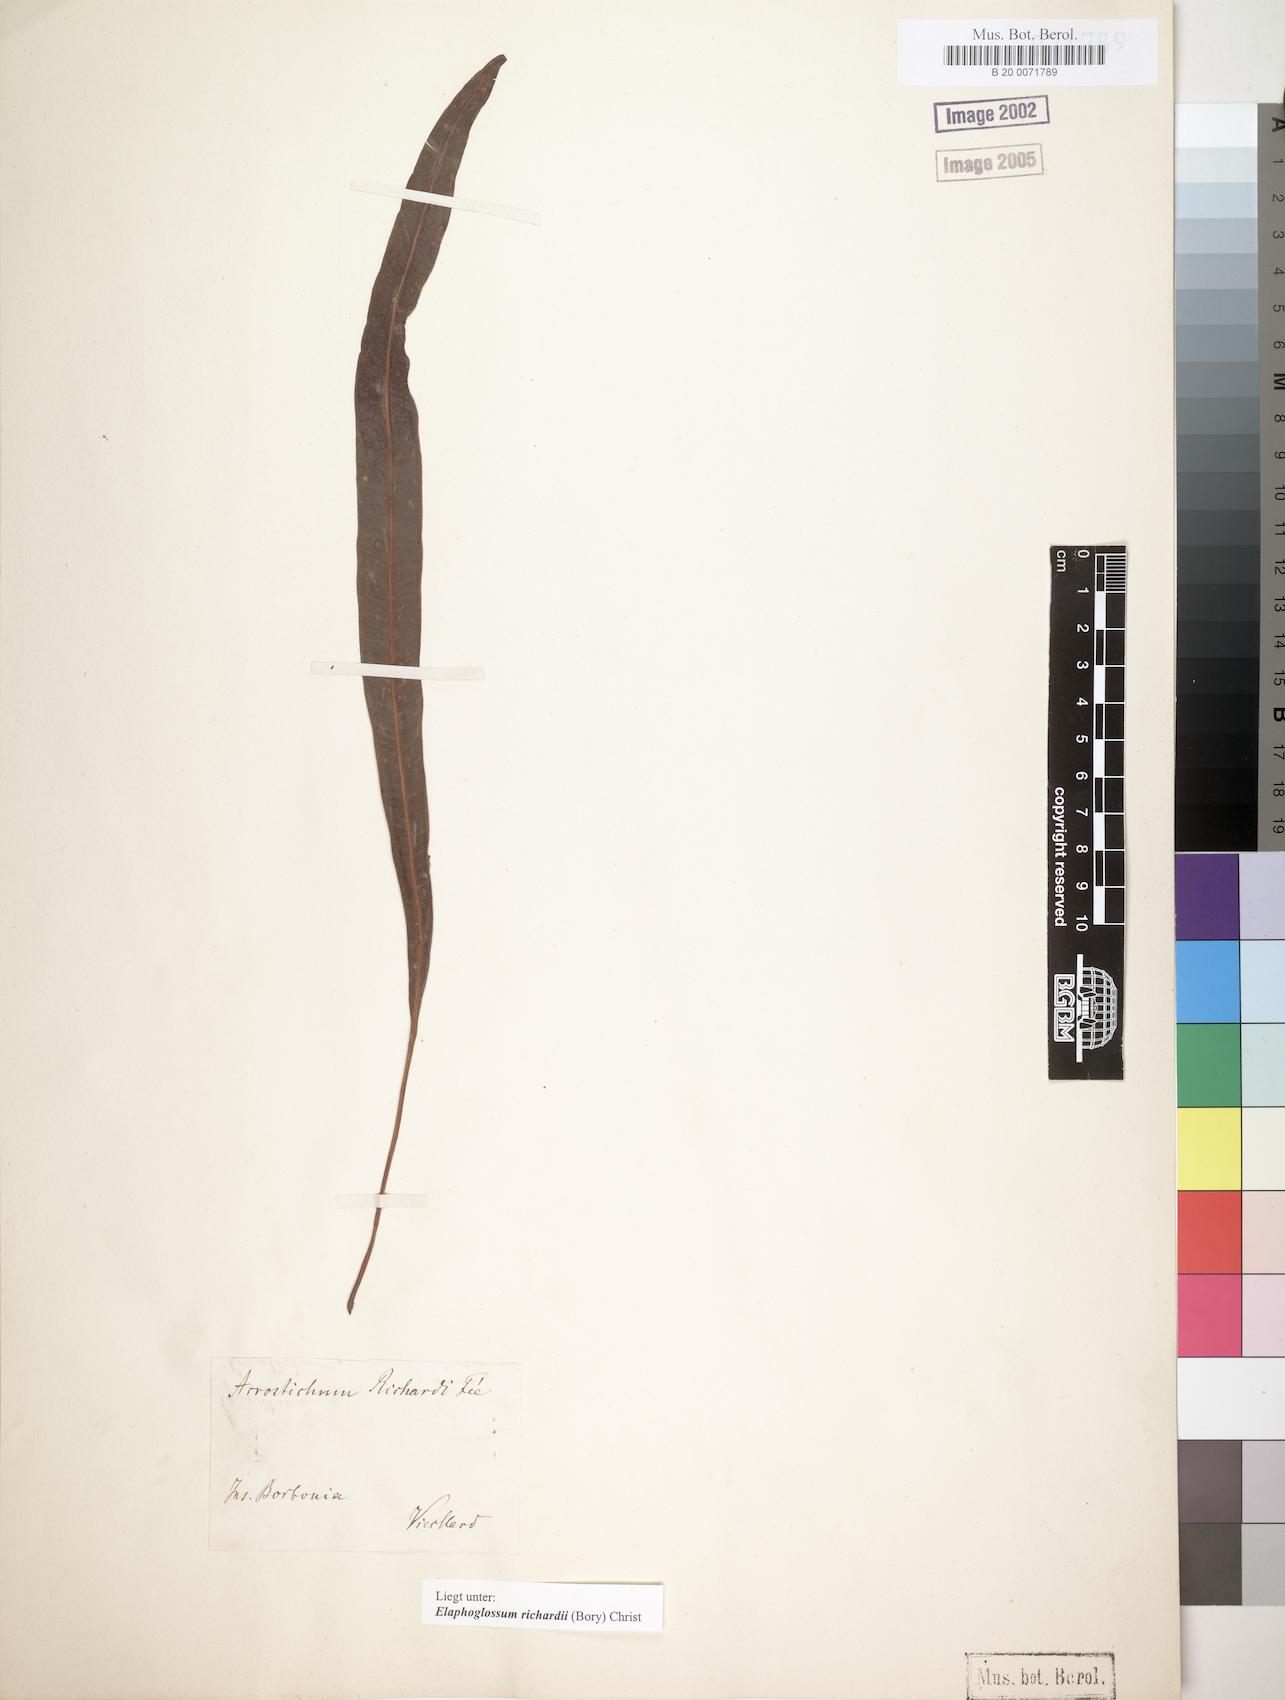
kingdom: Plantae
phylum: Tracheophyta
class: Polypodiopsida
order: Polypodiales
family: Dryopteridaceae
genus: Elaphoglossum
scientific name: Elaphoglossum richardii
